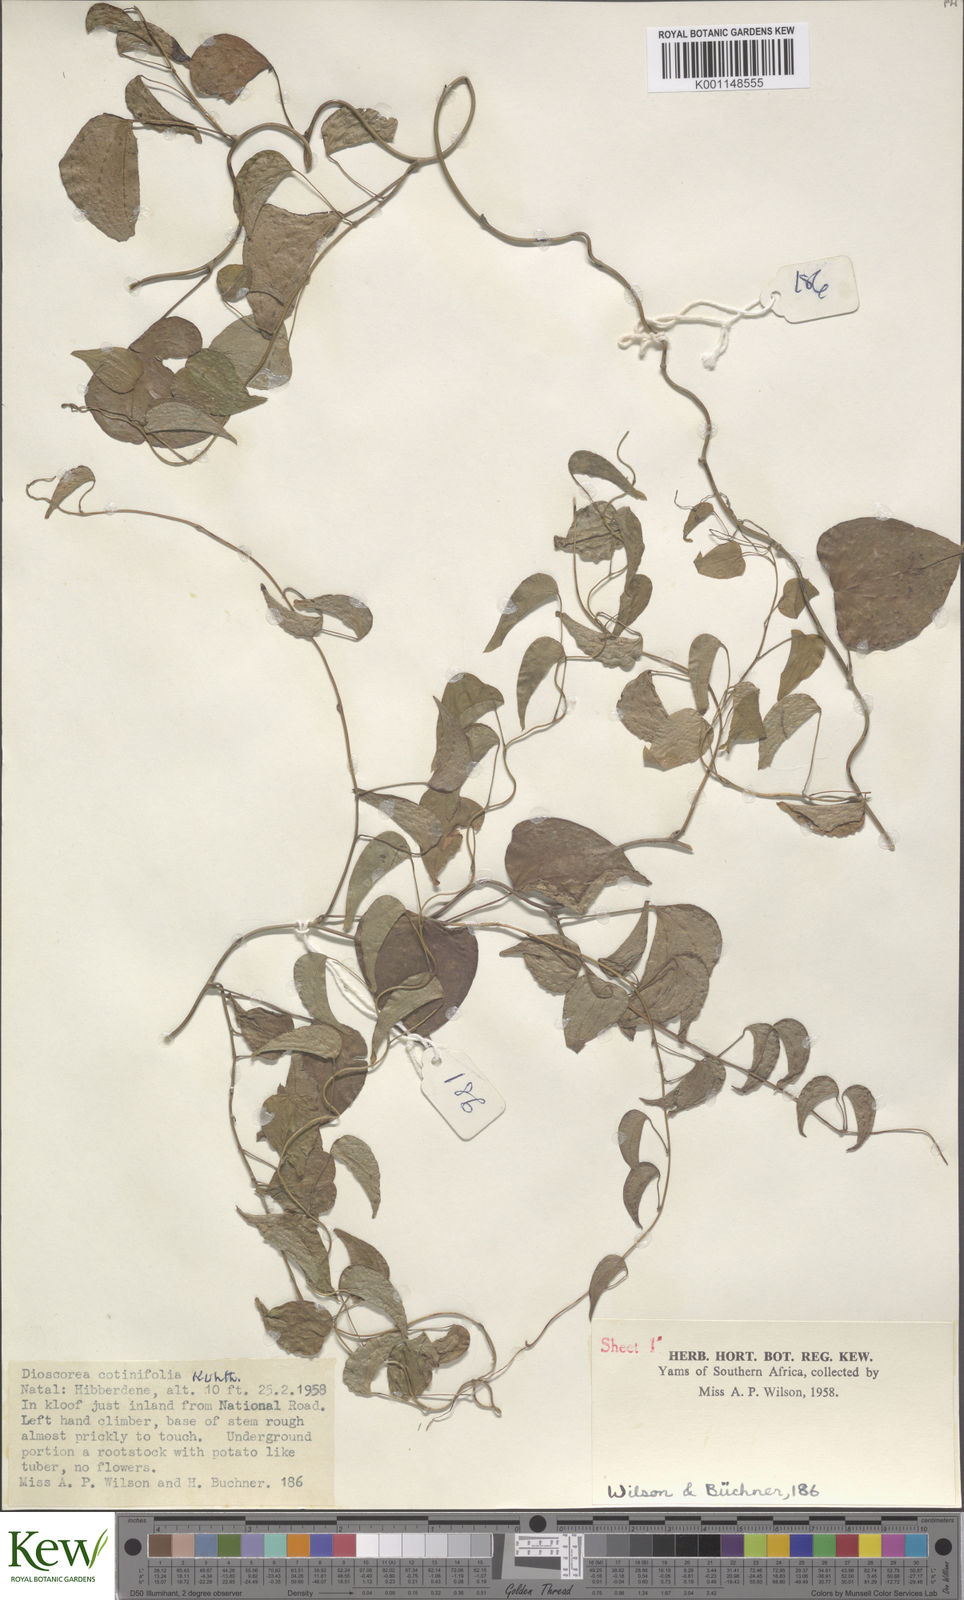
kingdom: Plantae
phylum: Tracheophyta
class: Liliopsida
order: Dioscoreales
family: Dioscoreaceae
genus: Dioscorea
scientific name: Dioscorea cotinifolia
